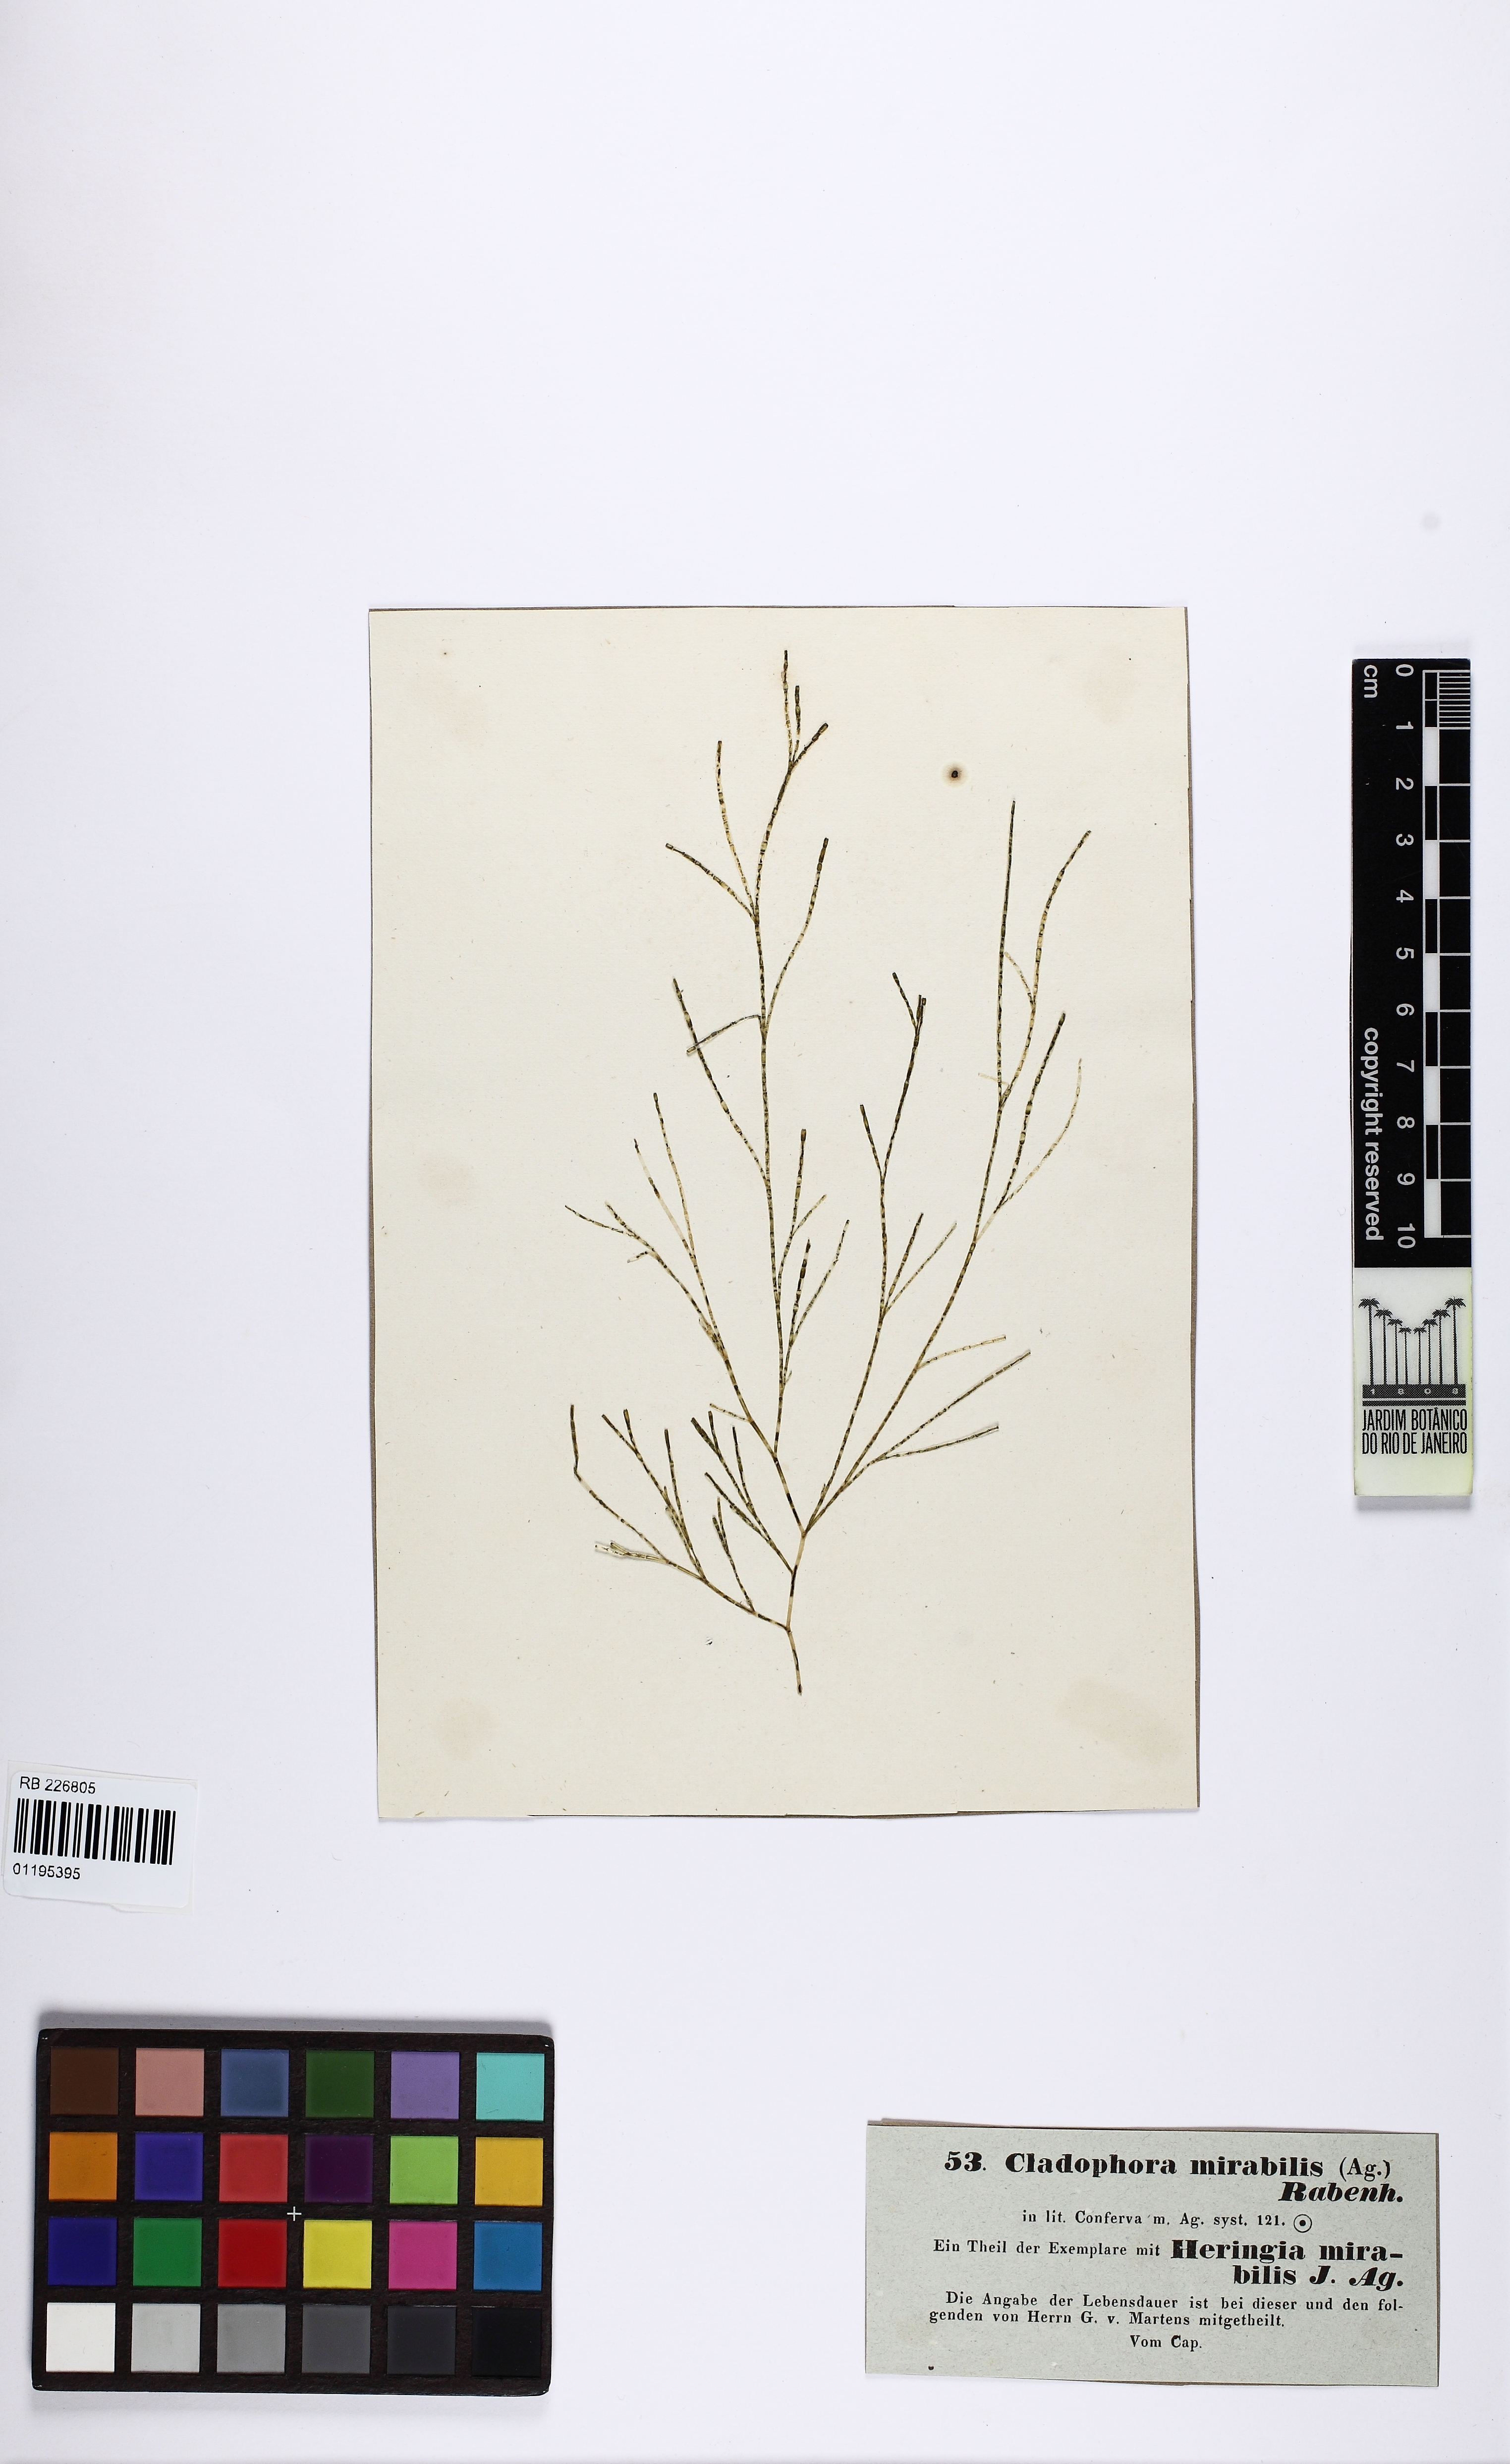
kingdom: Plantae
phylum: Chlorophyta
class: Ulvophyceae
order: Cladophorales
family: Cladophoraceae
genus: Cladophora
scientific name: Cladophora
